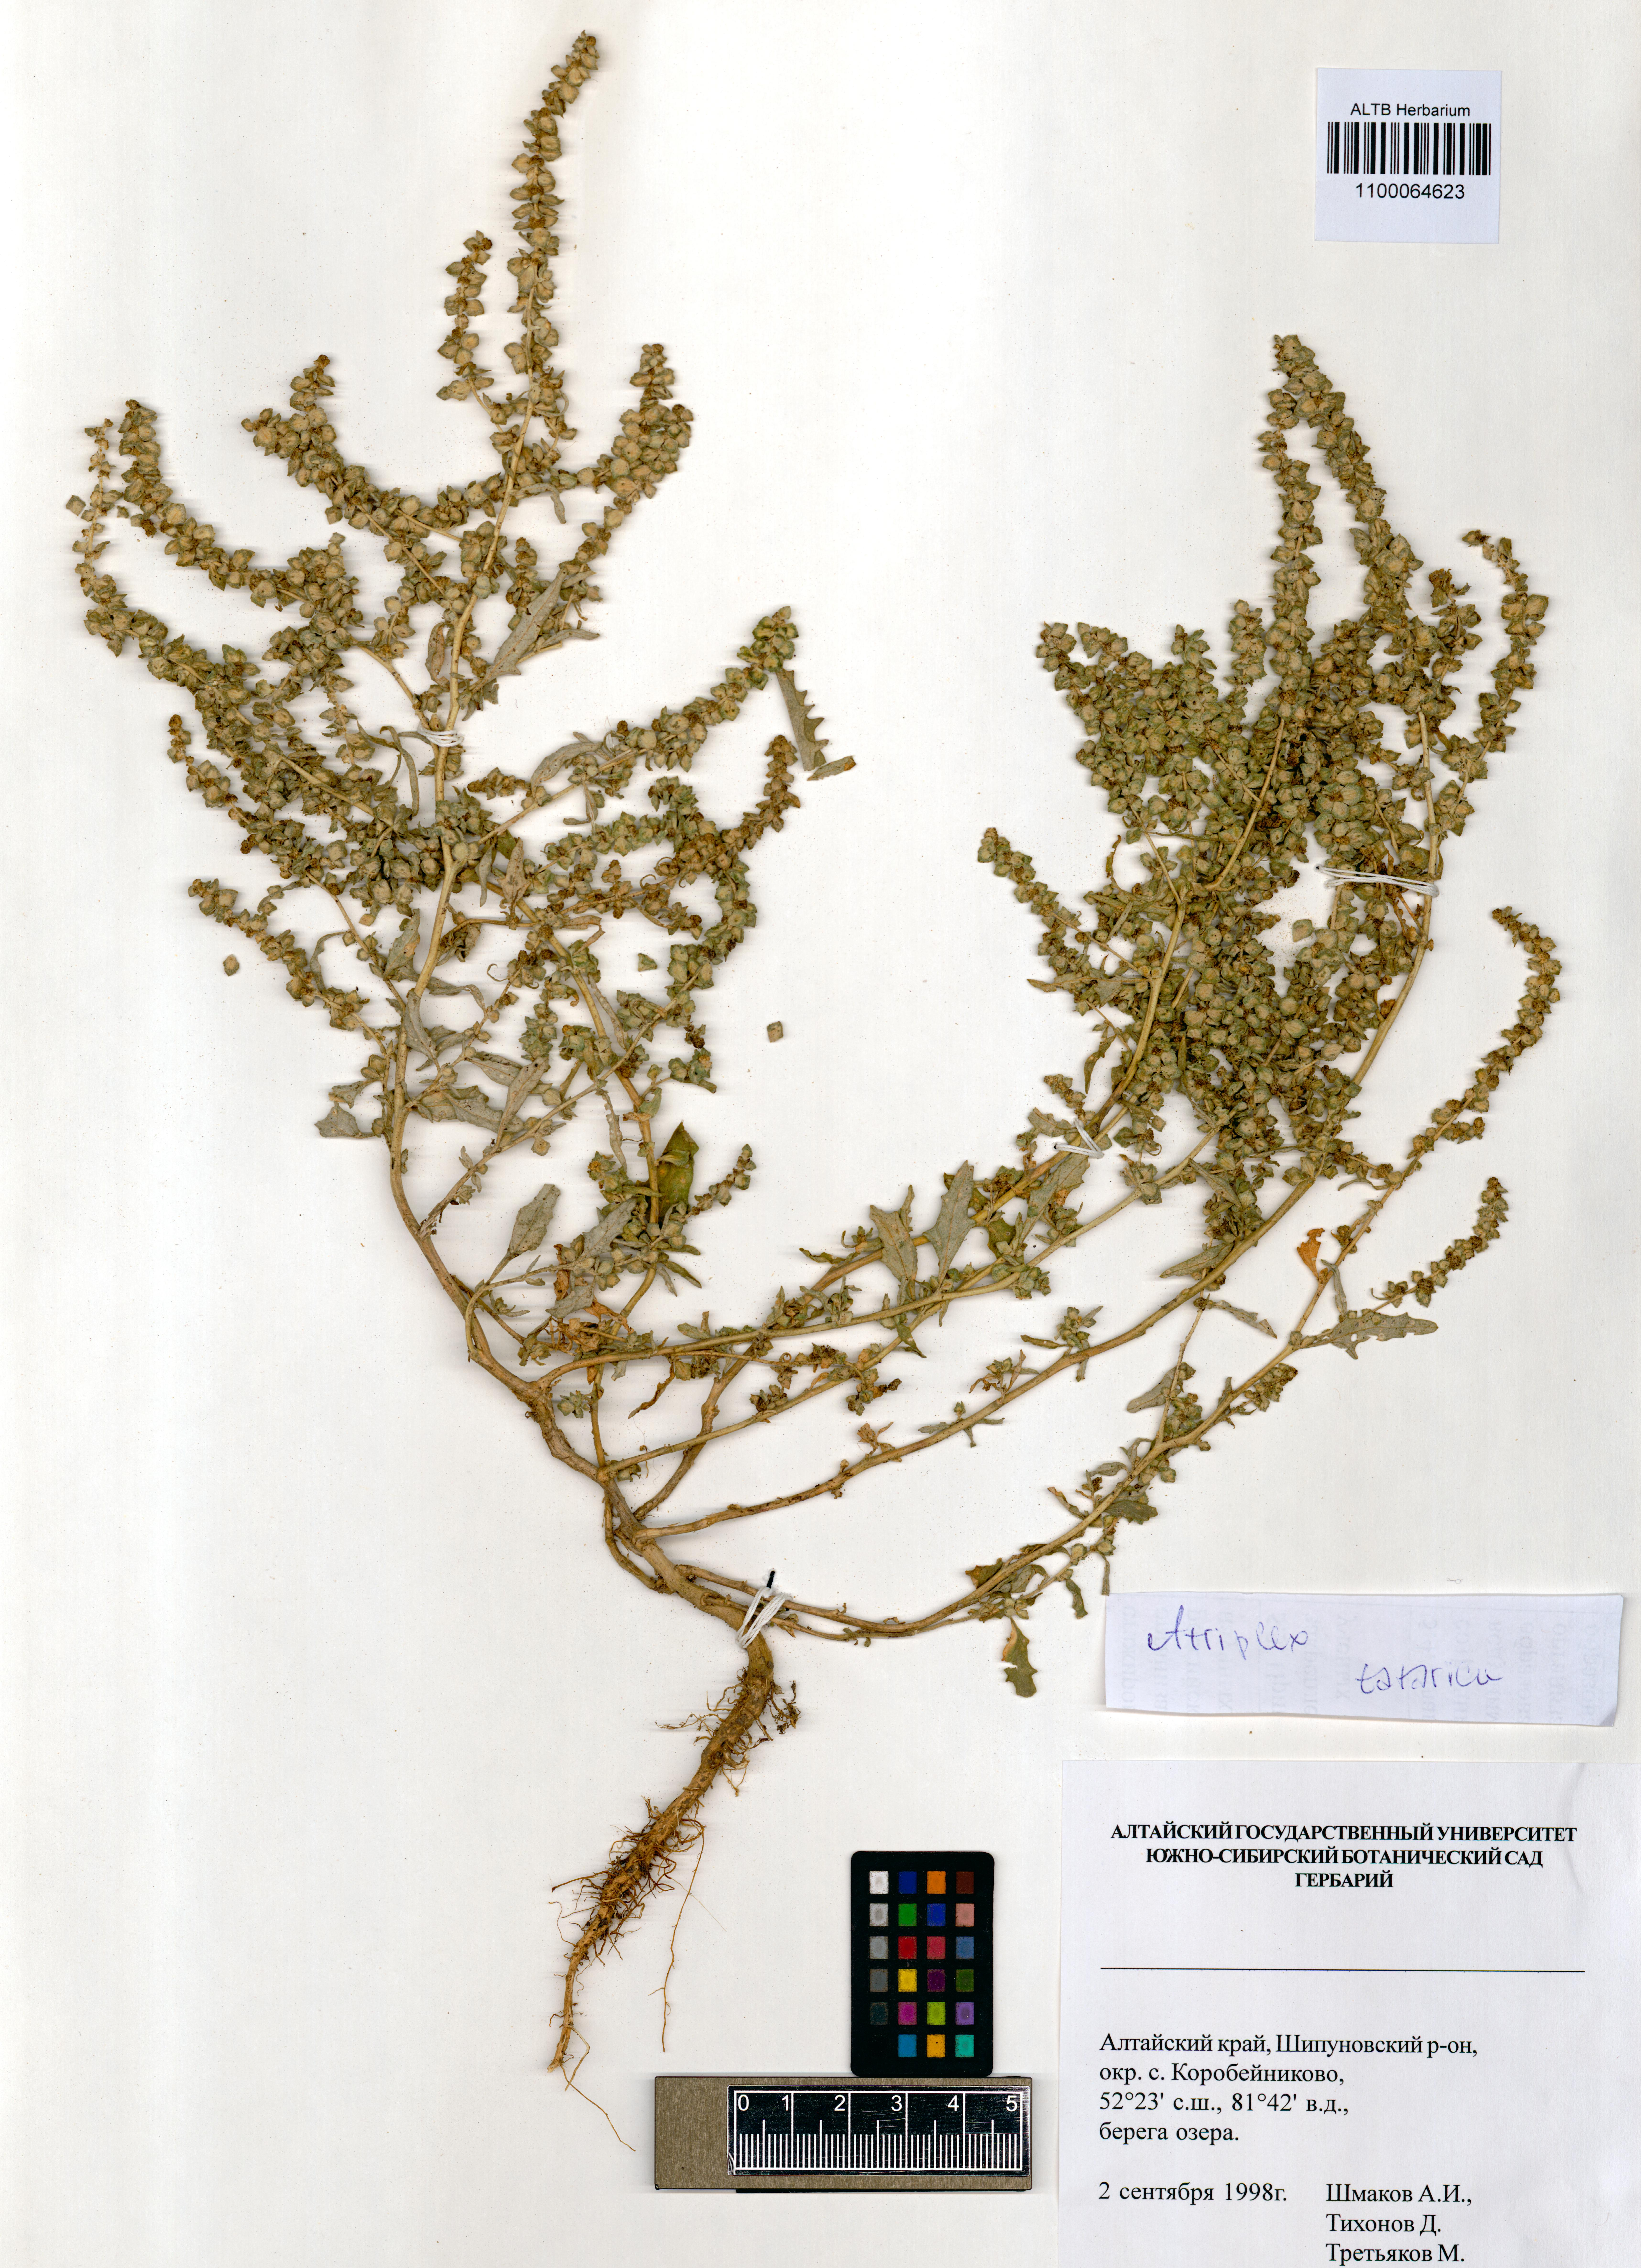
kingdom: Plantae
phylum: Tracheophyta
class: Magnoliopsida
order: Caryophyllales
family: Amaranthaceae
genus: Atriplex
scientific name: Atriplex tatarica
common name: Tatarian orache
